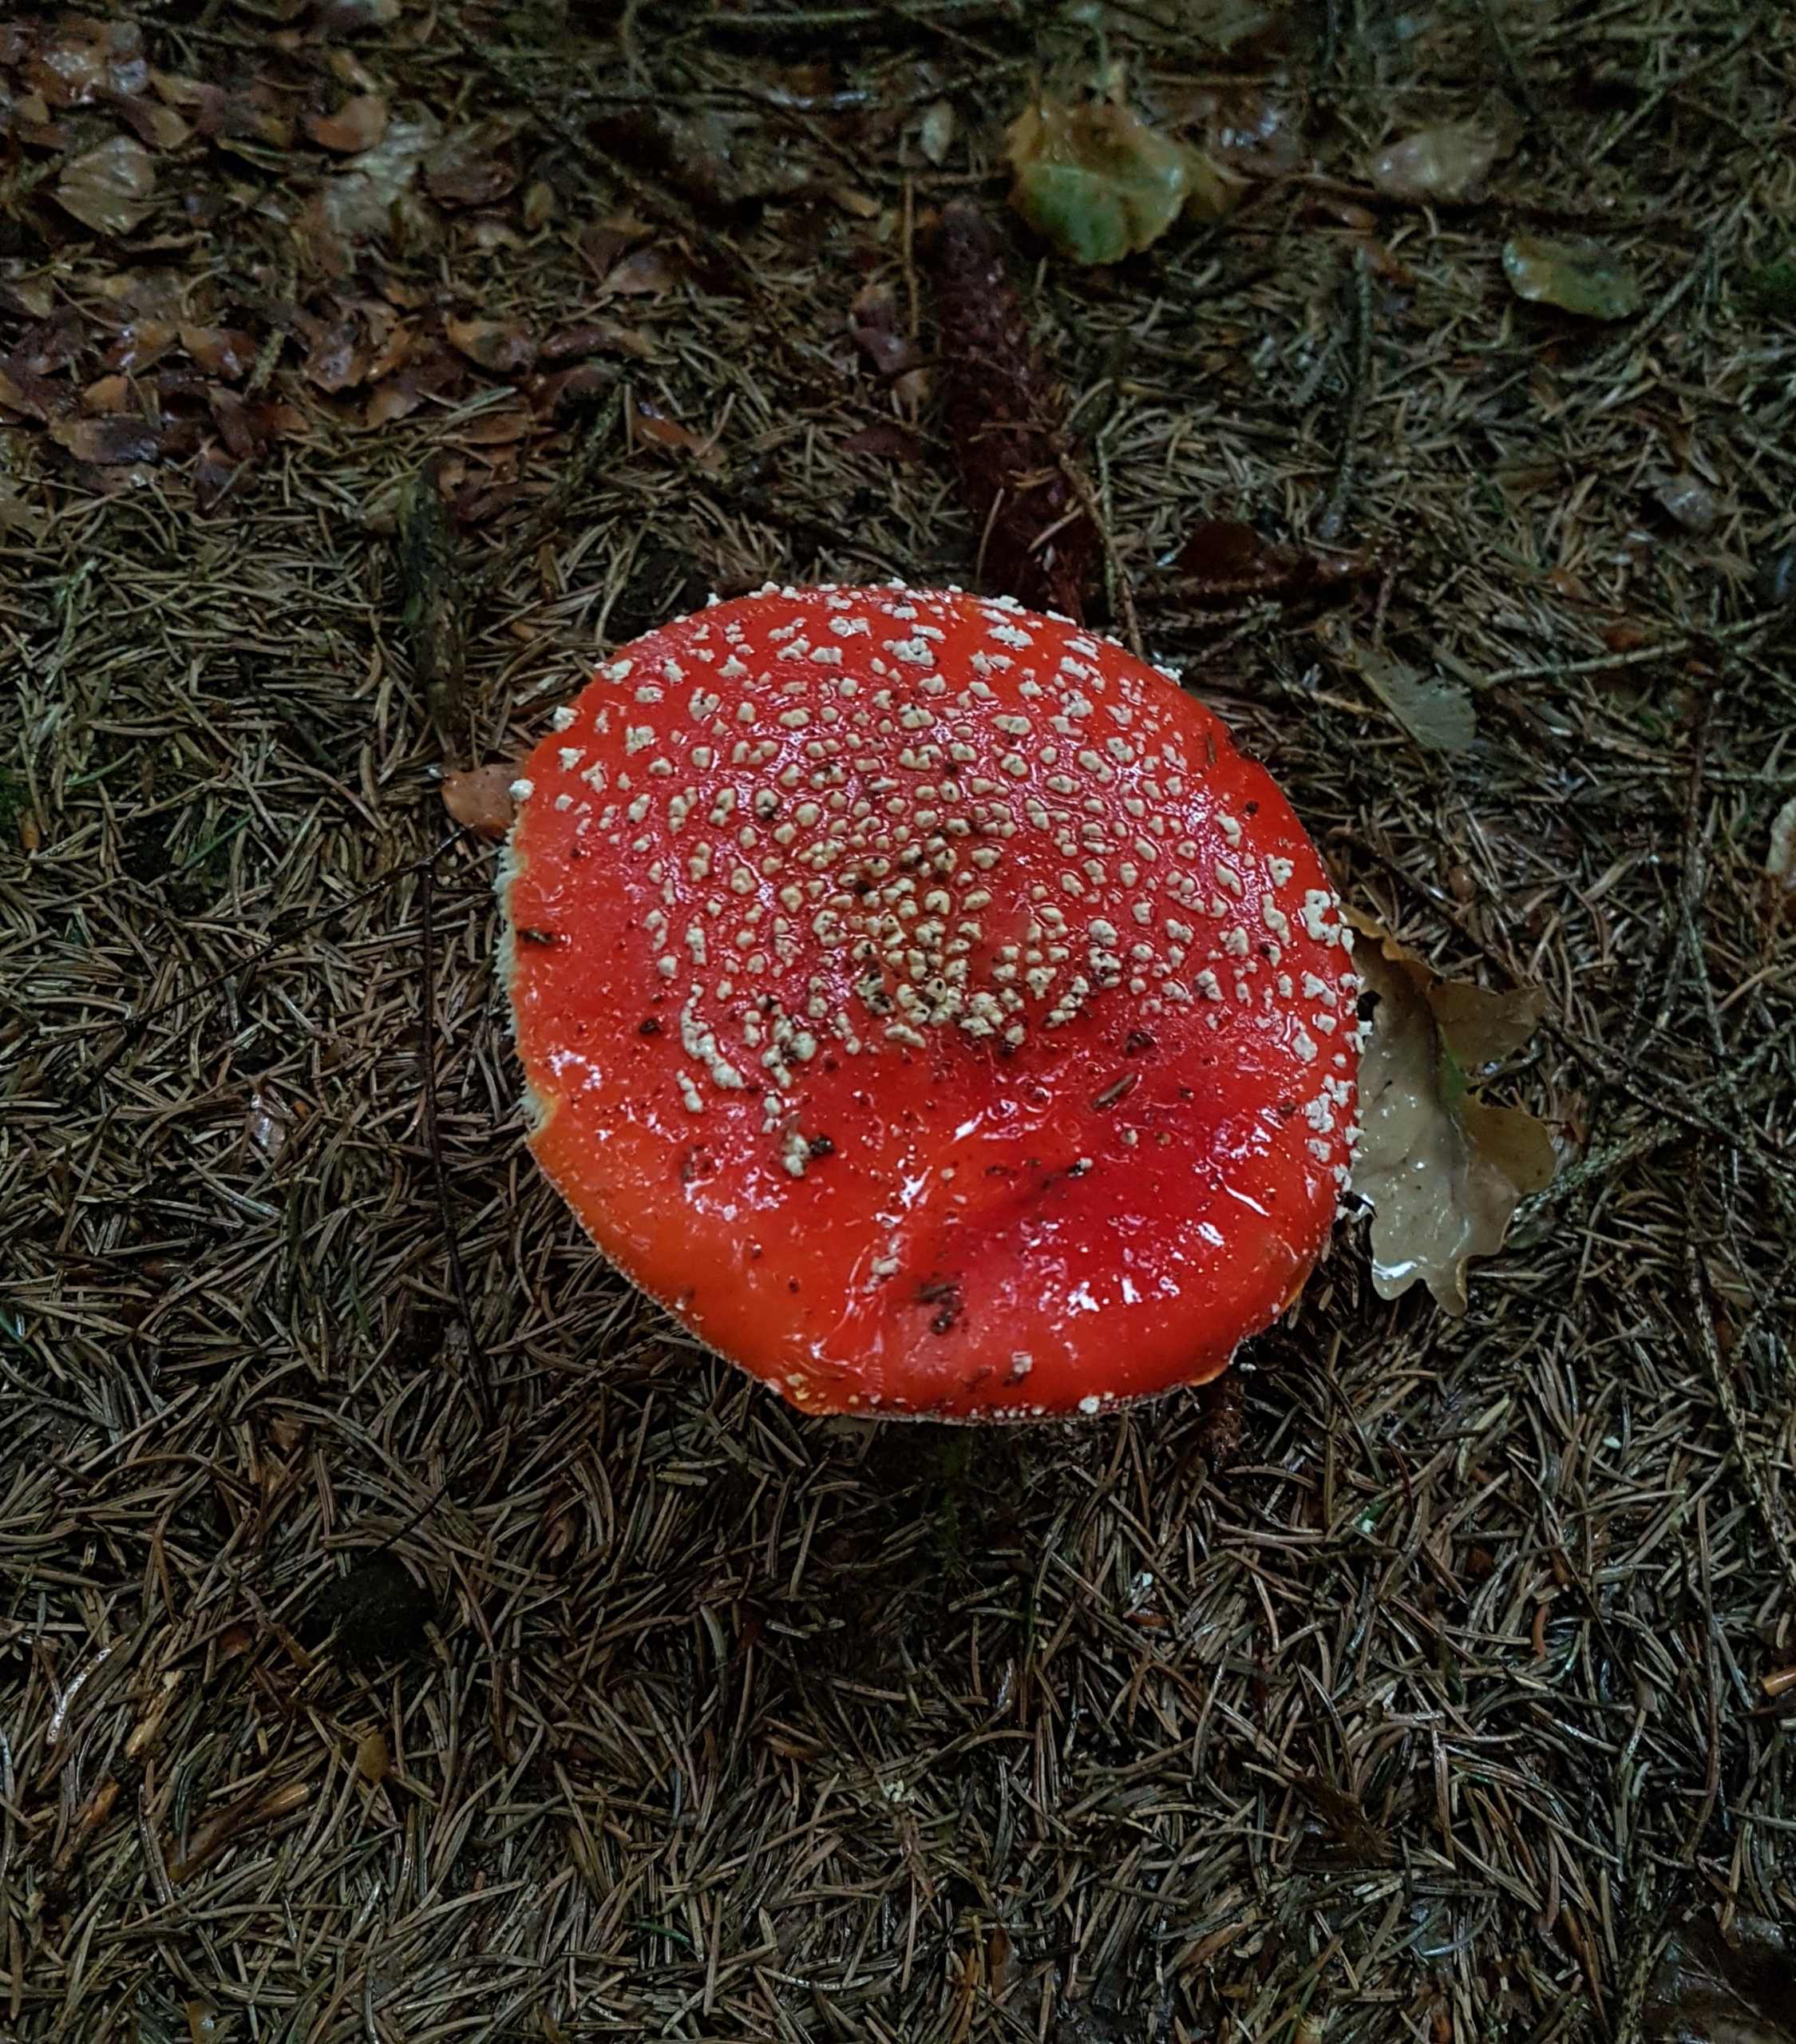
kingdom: Fungi
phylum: Basidiomycota
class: Agaricomycetes
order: Agaricales
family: Amanitaceae
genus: Amanita
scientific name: Amanita muscaria
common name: Rød fluesvamp
